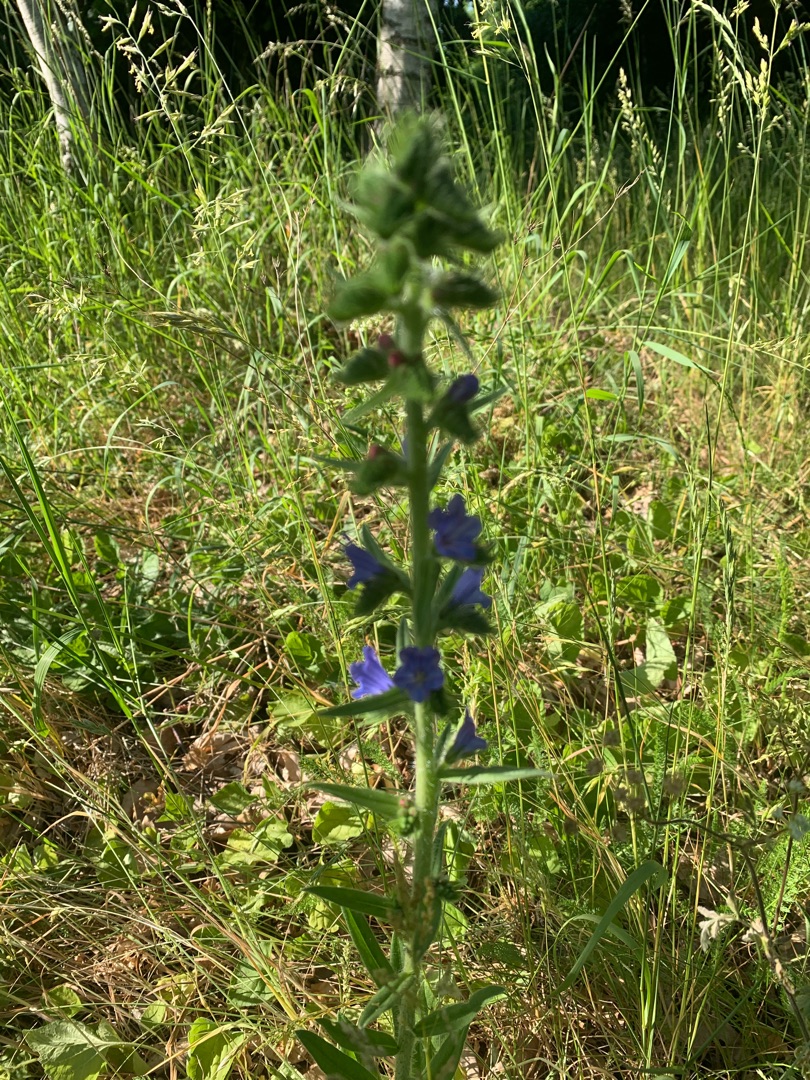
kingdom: Plantae
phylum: Tracheophyta
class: Magnoliopsida
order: Boraginales
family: Boraginaceae
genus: Echium
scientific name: Echium vulgare
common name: Slangehoved
